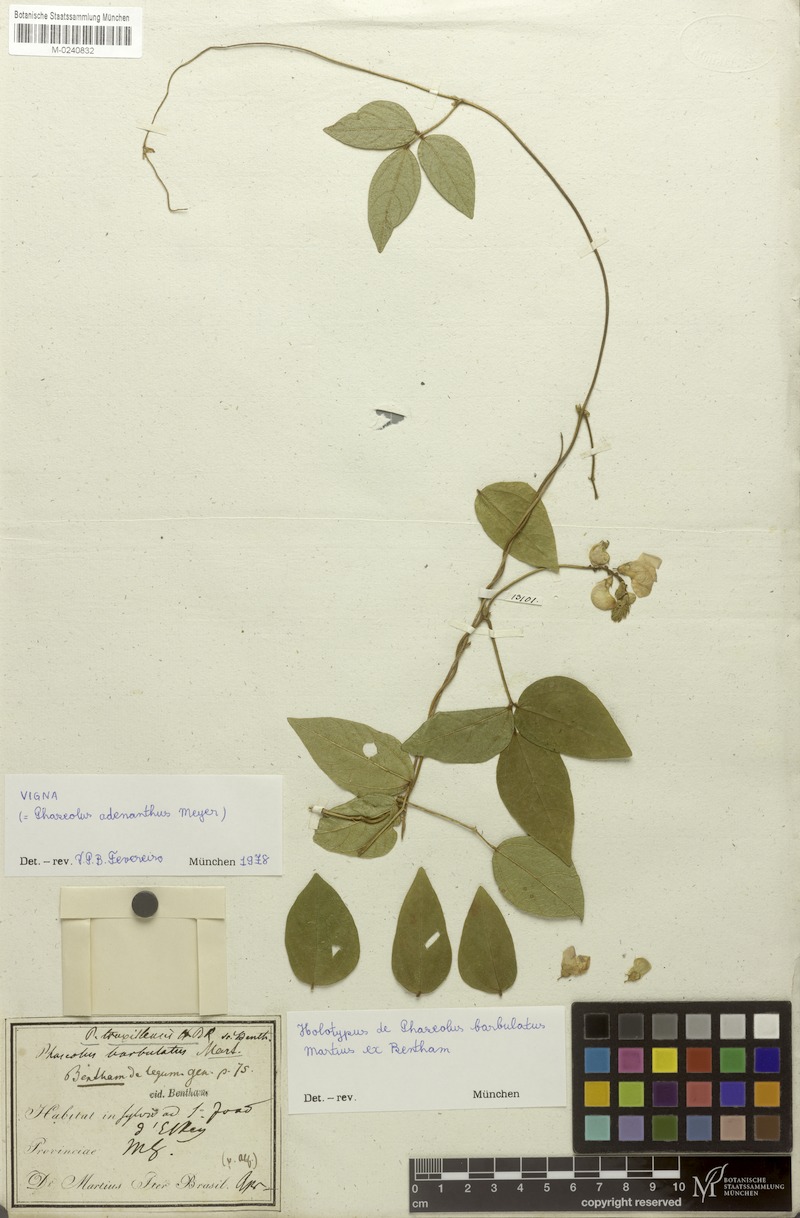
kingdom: Plantae
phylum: Tracheophyta
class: Magnoliopsida
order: Fabales
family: Fabaceae
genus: Leptospron
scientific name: Leptospron adenanthum
